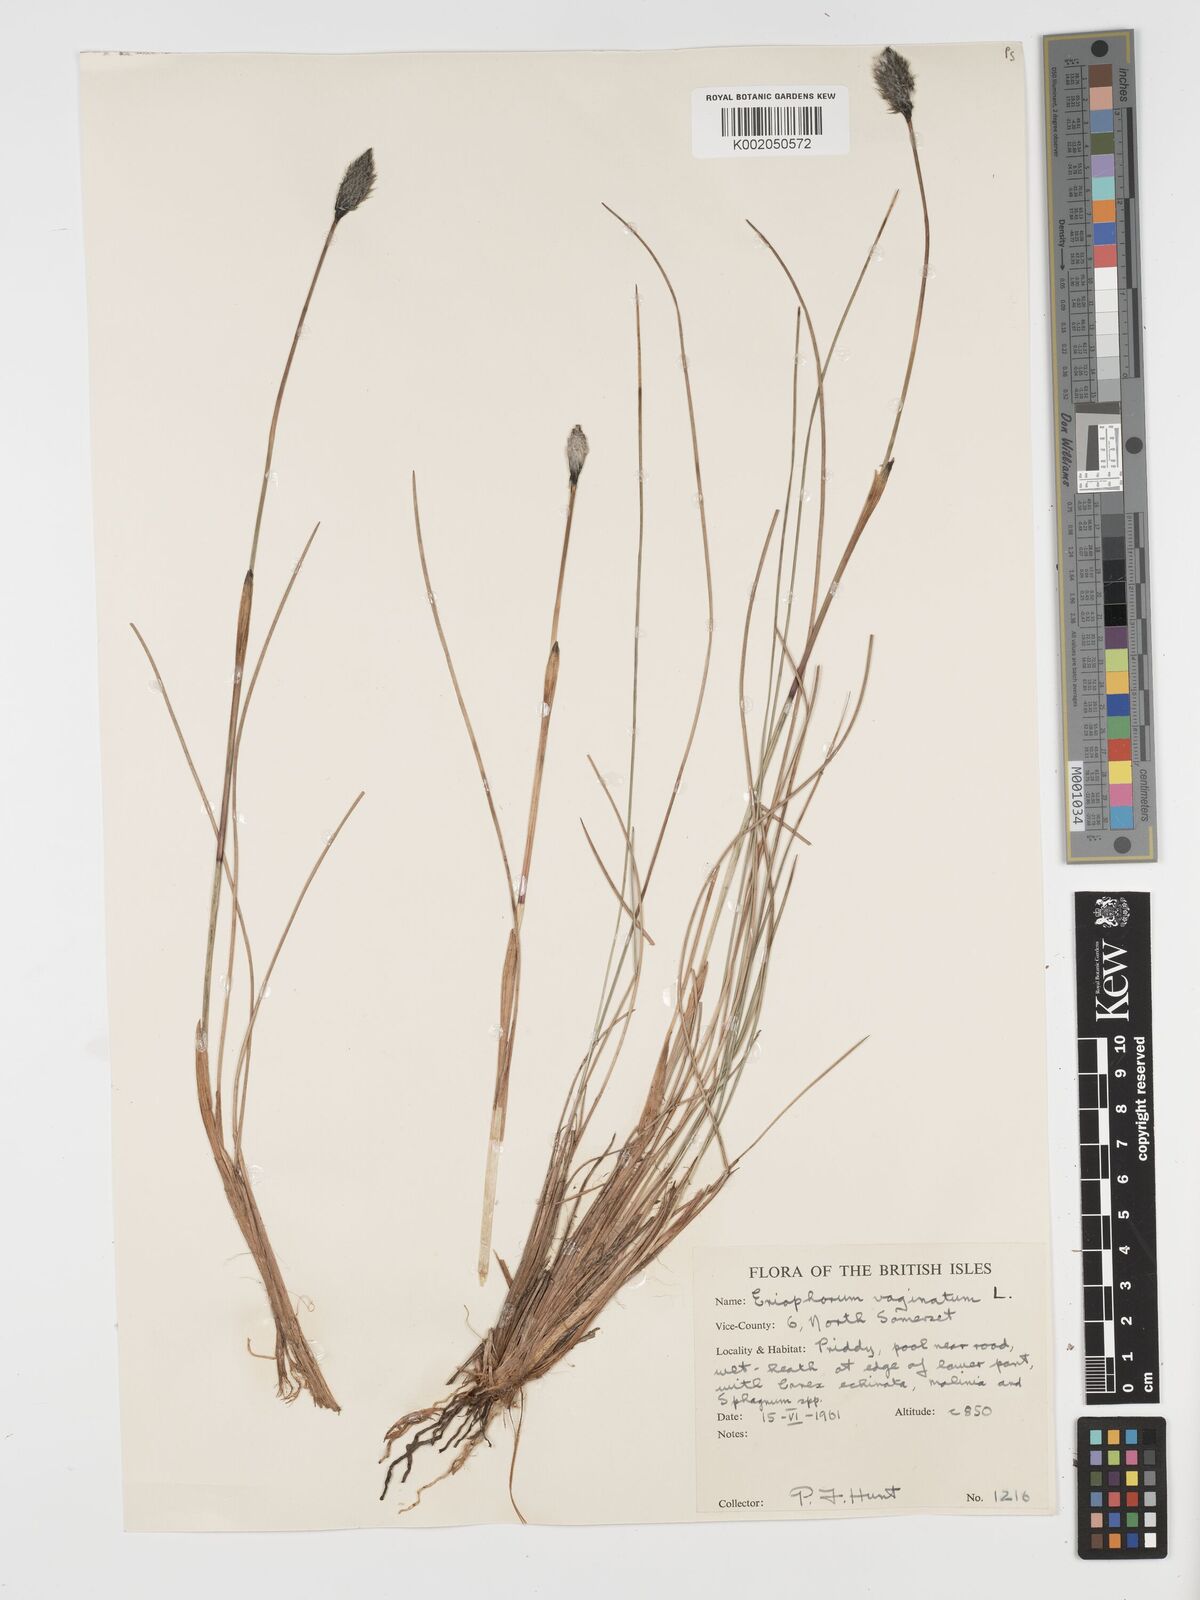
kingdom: Plantae
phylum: Tracheophyta
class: Liliopsida
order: Poales
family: Cyperaceae
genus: Eriophorum
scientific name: Eriophorum vaginatum
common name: Hare's-tail cottongrass
